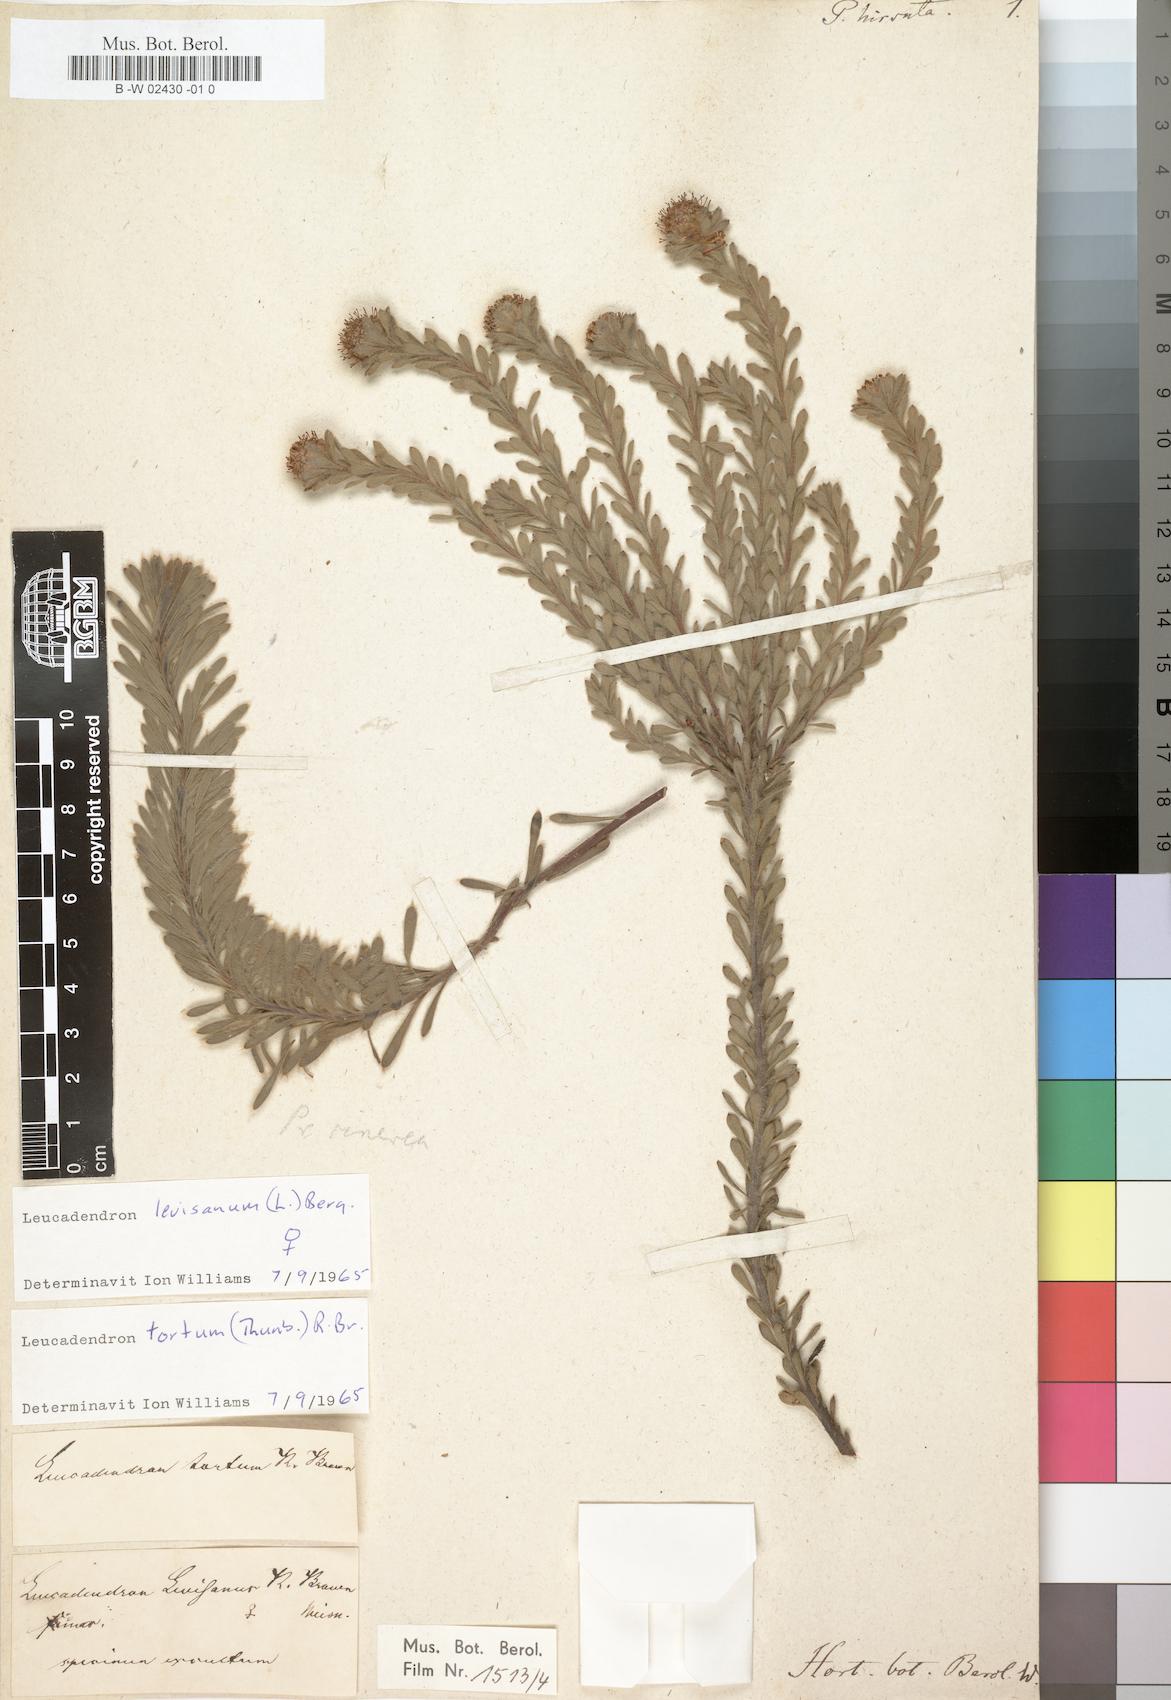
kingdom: Plantae
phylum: Tracheophyta
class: Magnoliopsida
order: Proteales
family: Proteaceae
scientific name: Proteaceae
